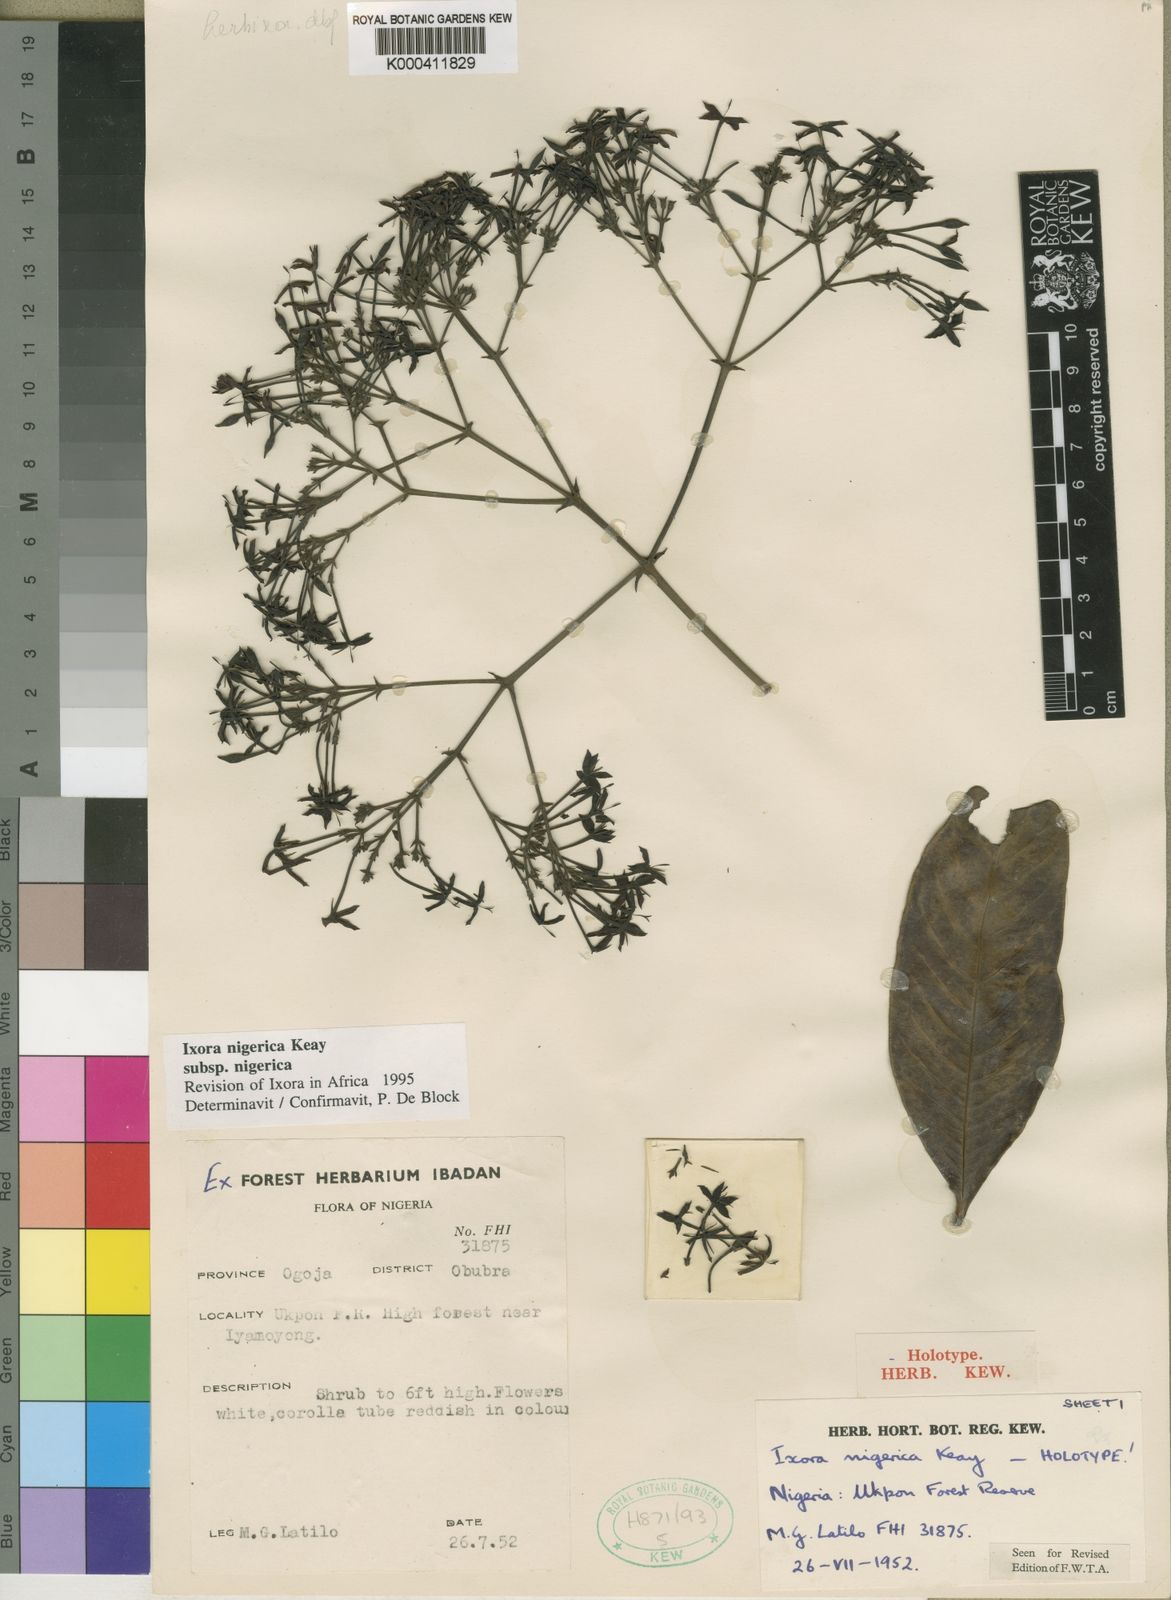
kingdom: Plantae
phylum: Tracheophyta
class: Magnoliopsida
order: Gentianales
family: Rubiaceae
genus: Ixora
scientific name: Ixora nigerica
